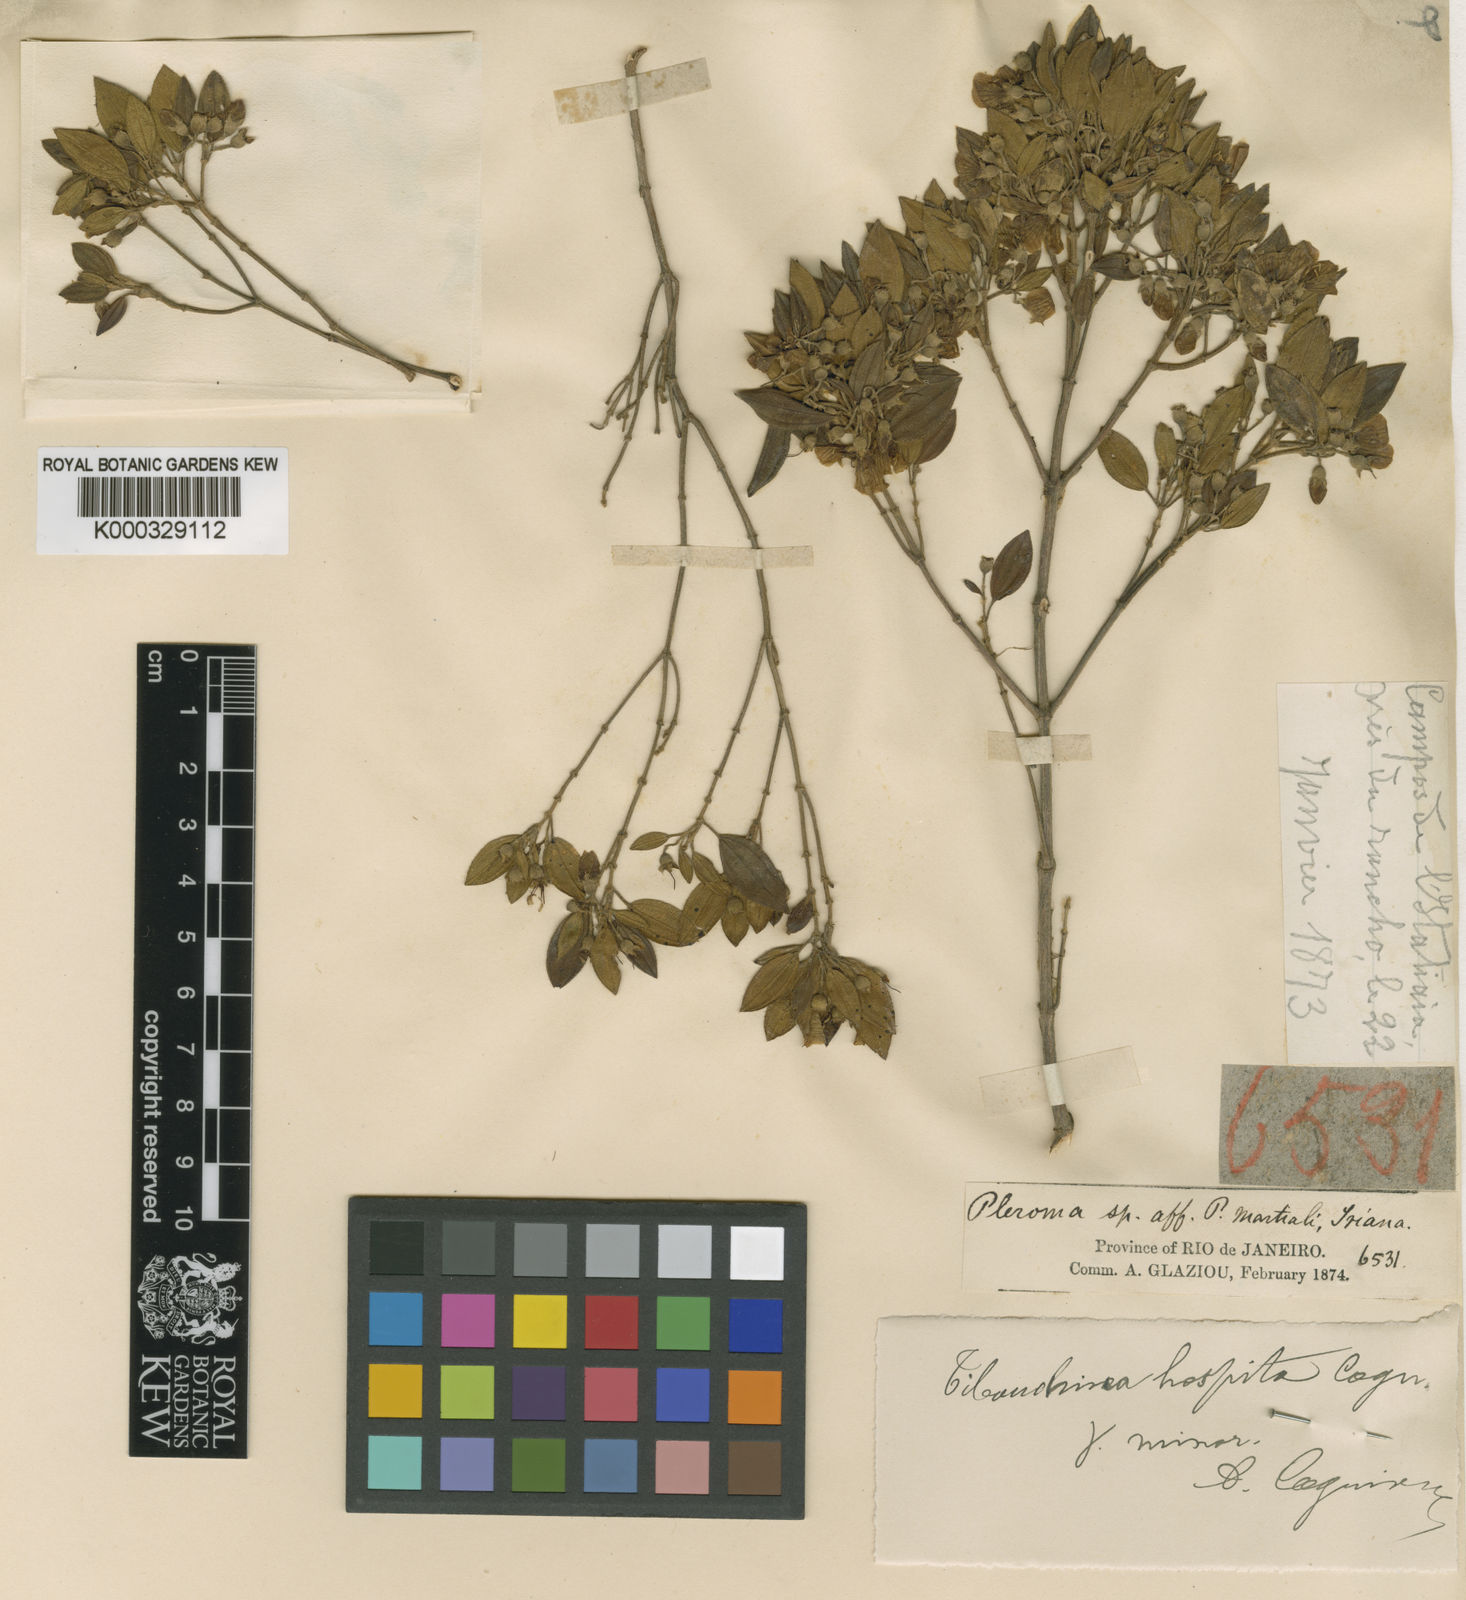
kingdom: Plantae
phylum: Tracheophyta
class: Magnoliopsida
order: Myrtales
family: Melastomataceae
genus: Pleroma
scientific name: Pleroma hospitum
